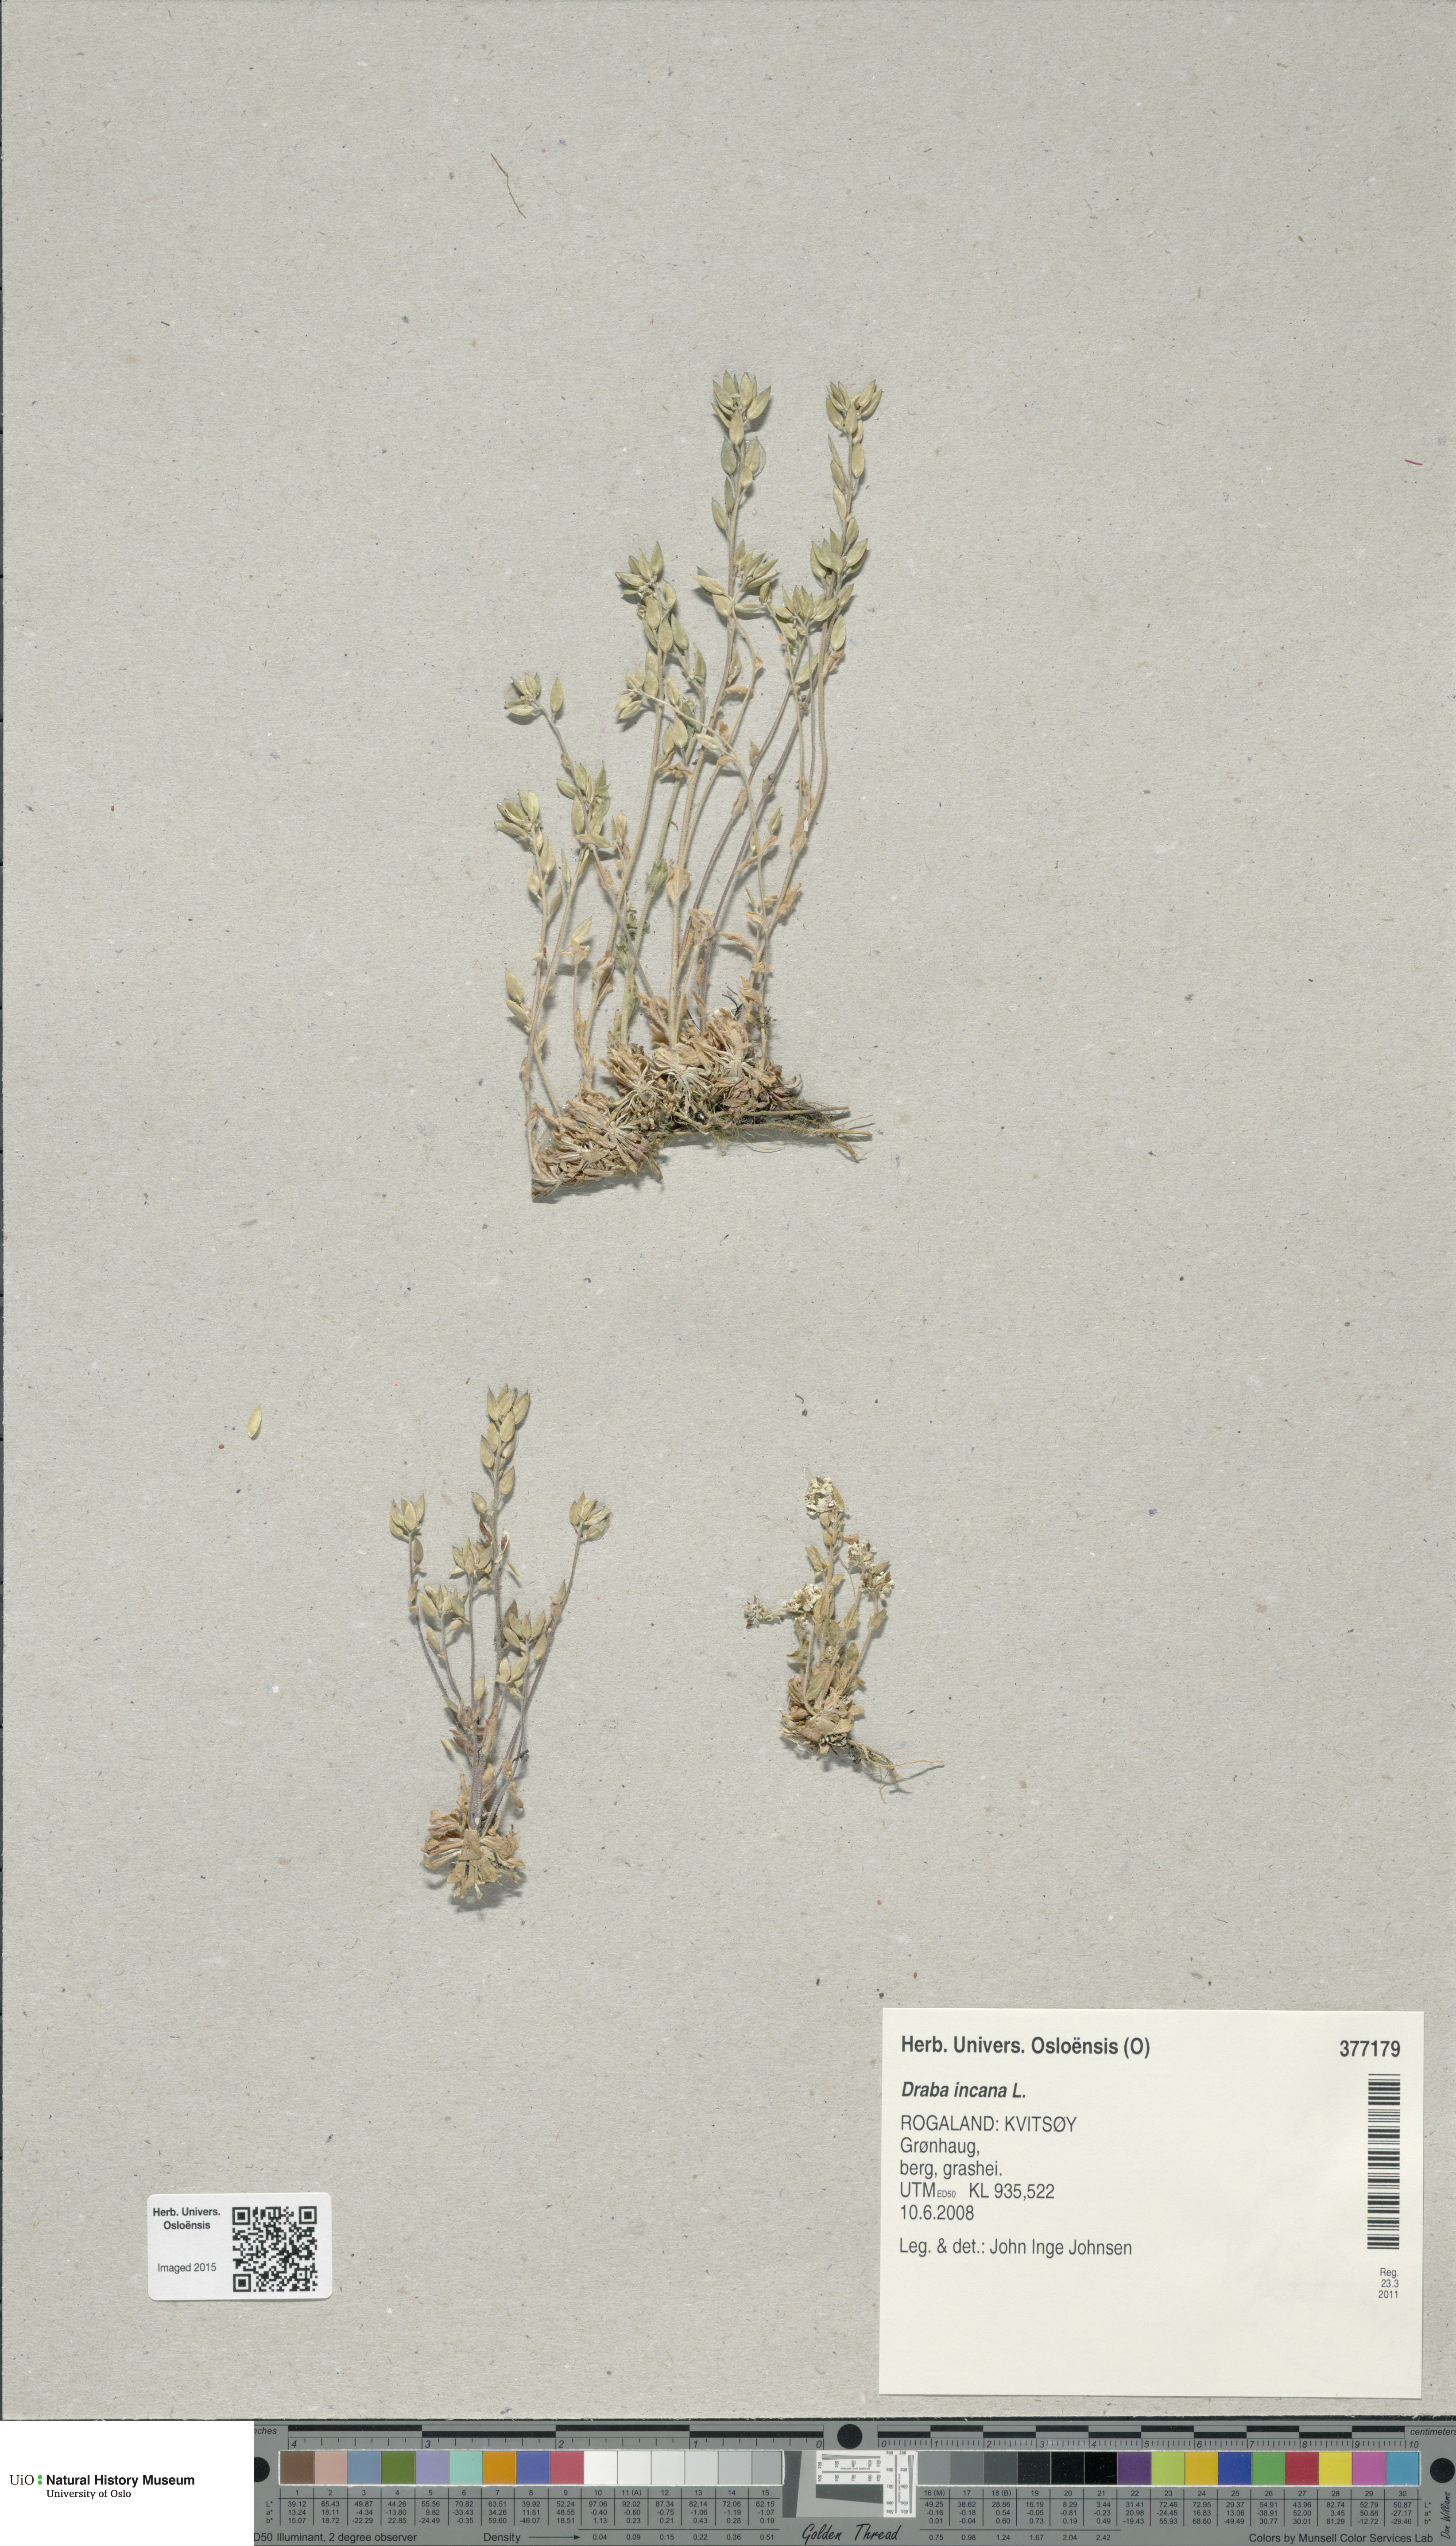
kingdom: Plantae
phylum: Tracheophyta
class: Magnoliopsida
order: Brassicales
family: Brassicaceae
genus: Draba
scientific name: Draba incana
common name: Hoary whitlow-grass
